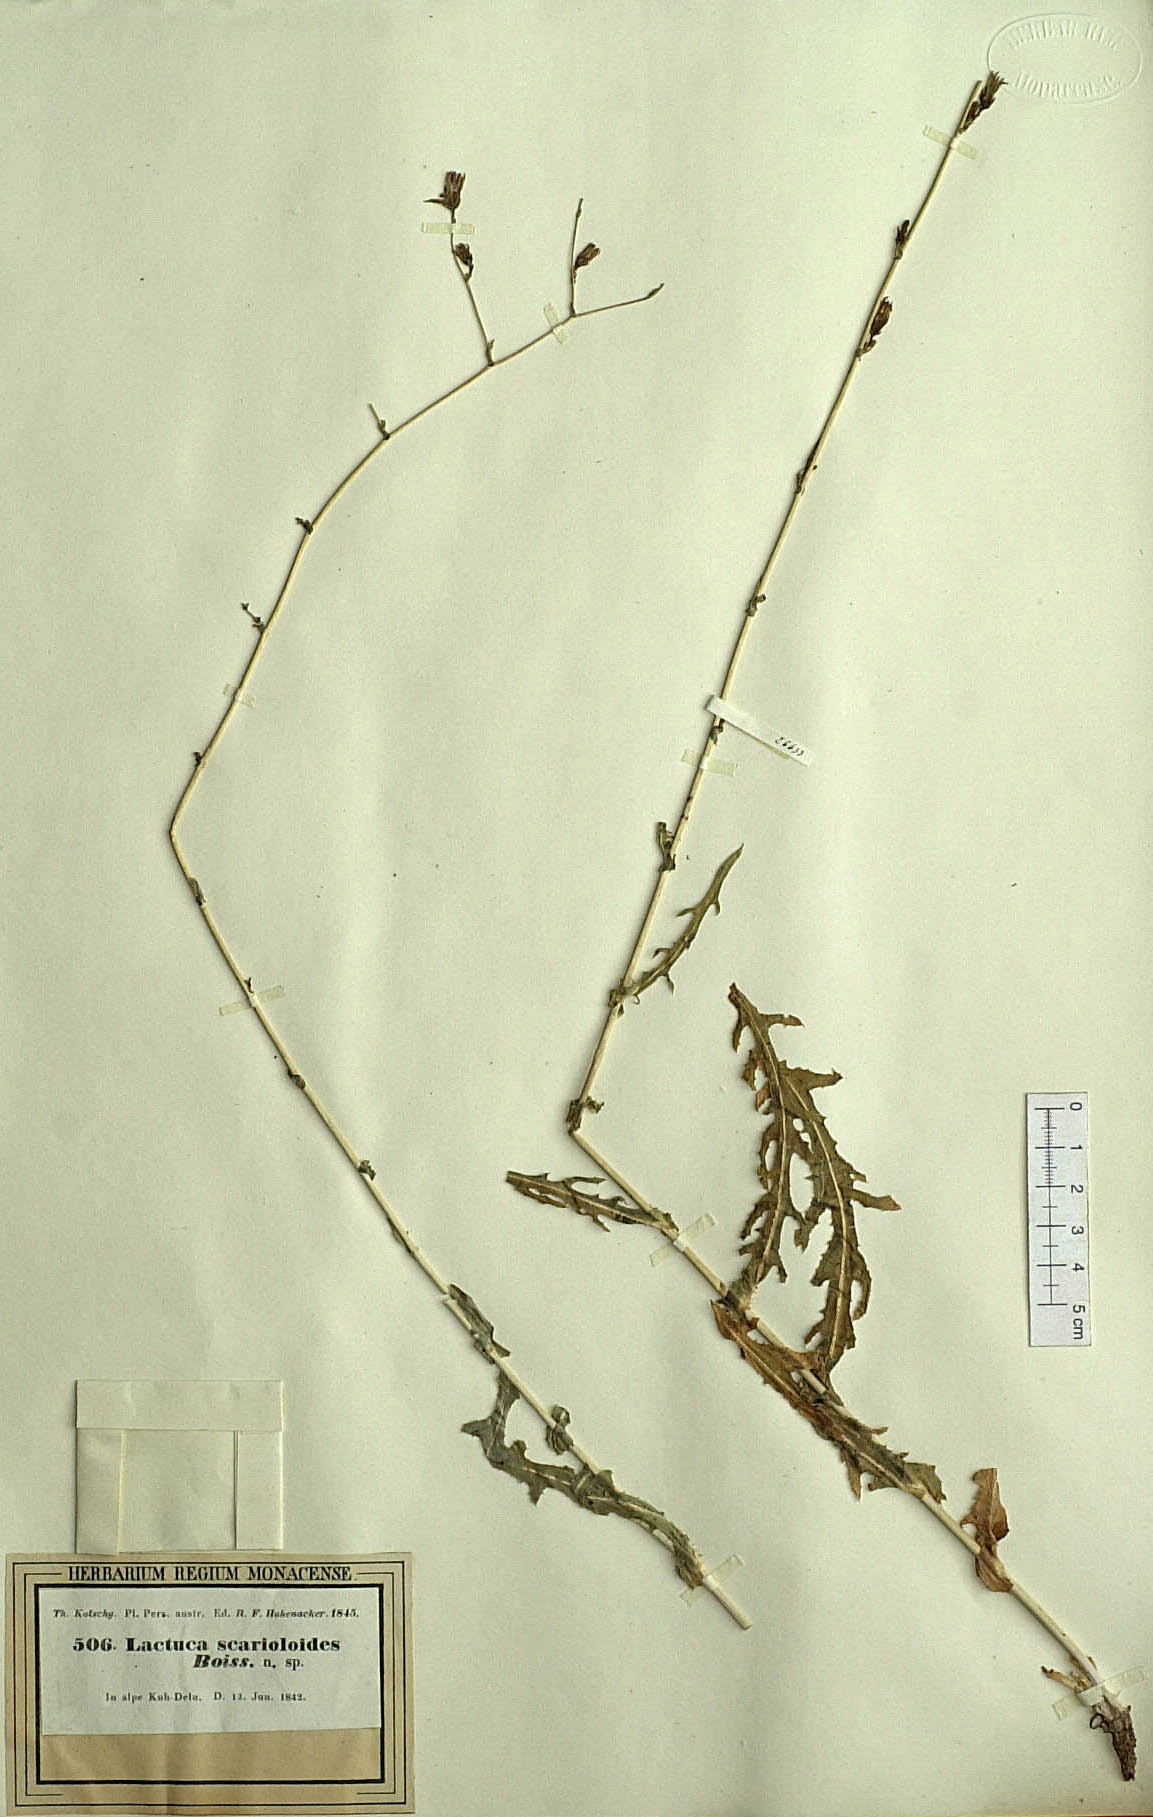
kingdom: Plantae
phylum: Tracheophyta
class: Magnoliopsida
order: Asterales
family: Asteraceae
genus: Lactuca
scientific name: Lactuca scarioloides
